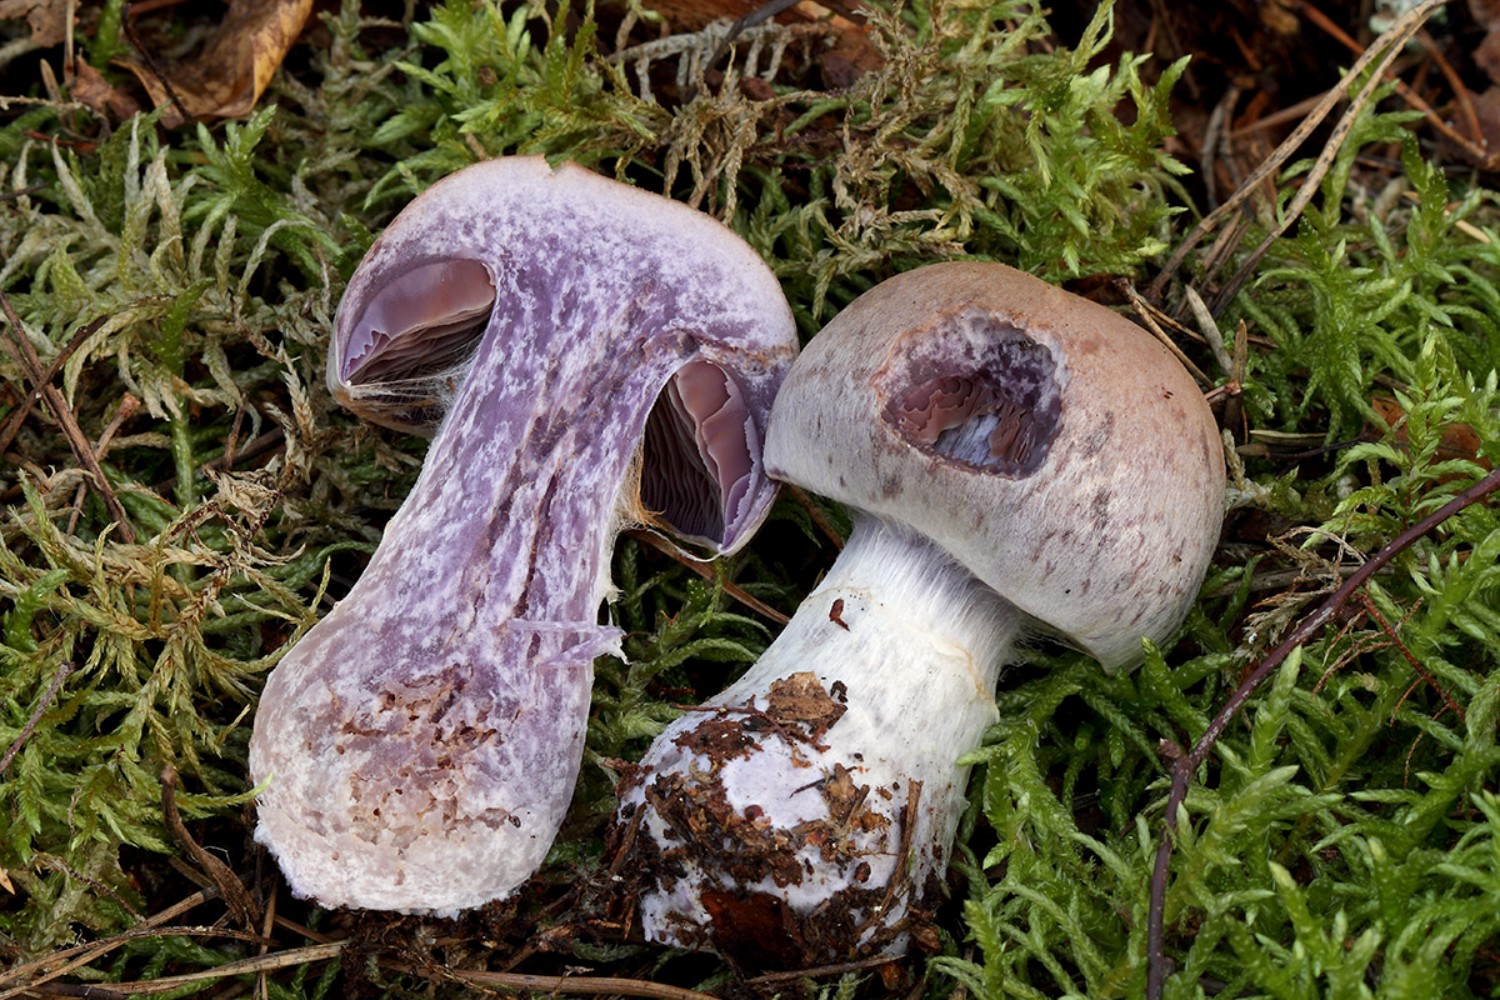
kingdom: Fungi
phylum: Basidiomycota
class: Agaricomycetes
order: Agaricales
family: Cortinariaceae
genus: Cortinarius
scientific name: Cortinarius malachius
